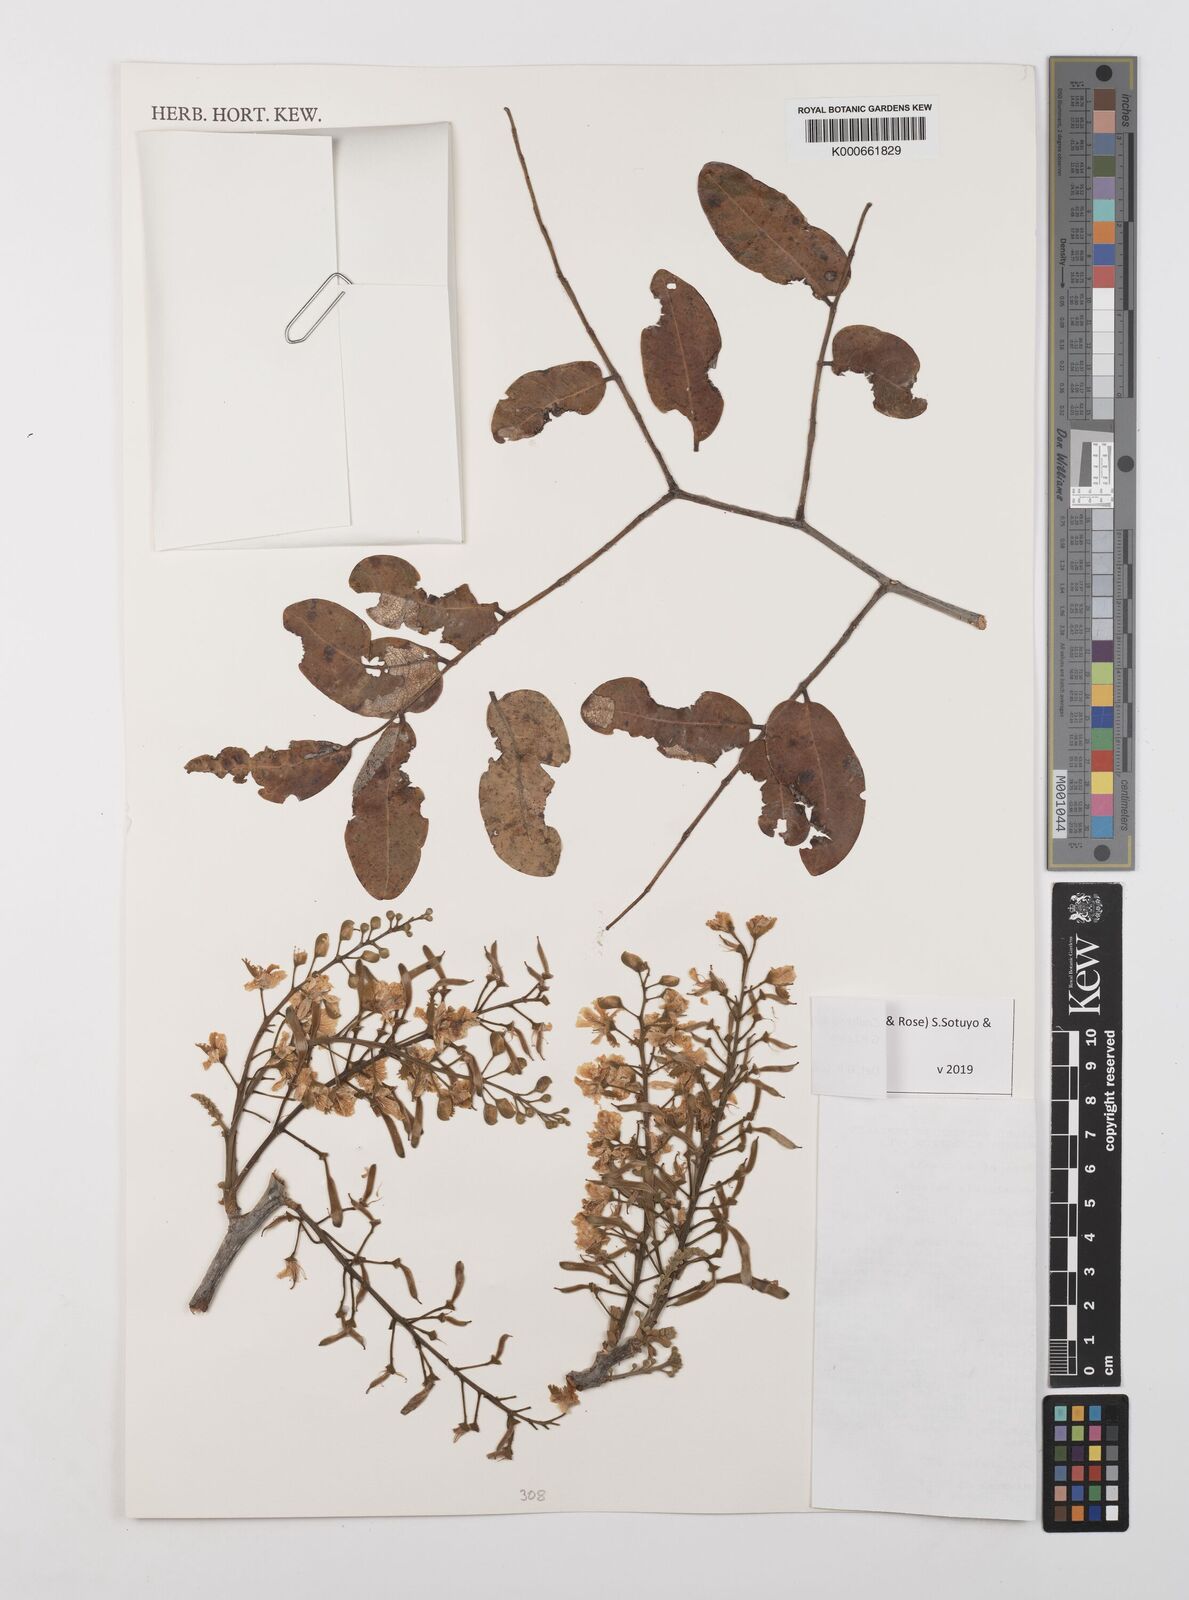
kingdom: Plantae
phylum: Tracheophyta
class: Magnoliopsida
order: Fabales
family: Fabaceae
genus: Coulteria
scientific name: Coulteria velutina
